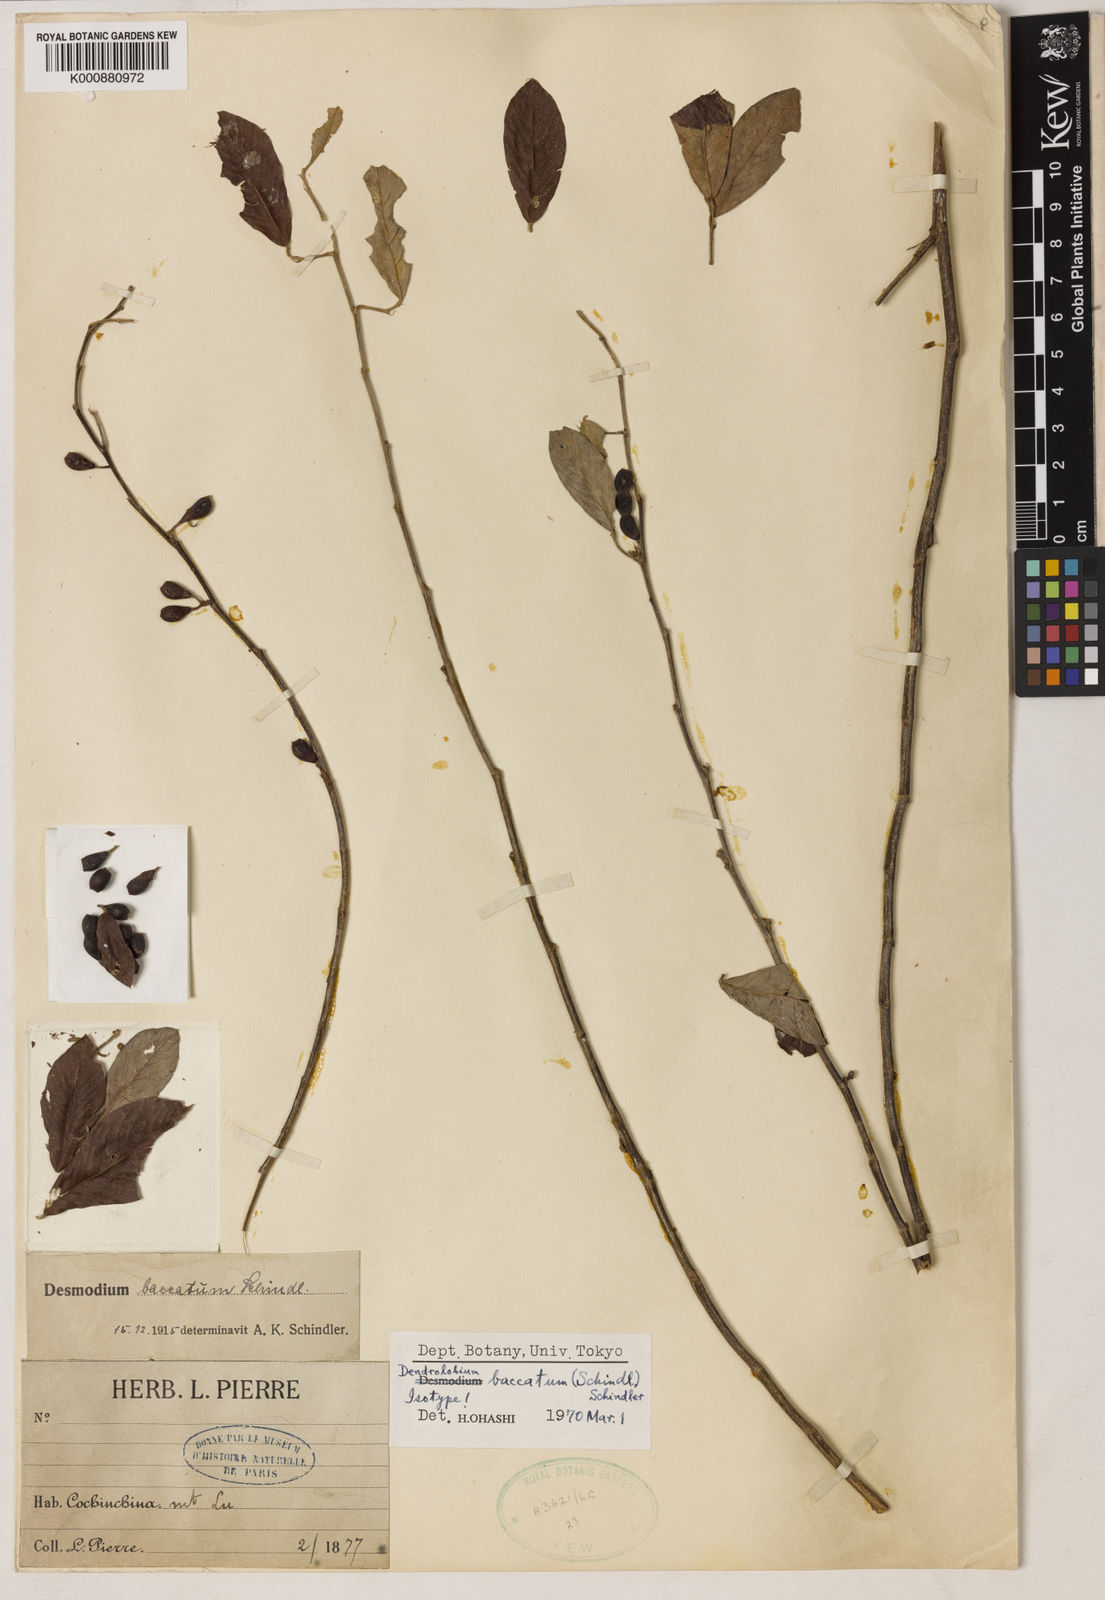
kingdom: Plantae
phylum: Tracheophyta
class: Magnoliopsida
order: Fabales
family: Fabaceae
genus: Dendrolobium
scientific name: Dendrolobium baccatum
